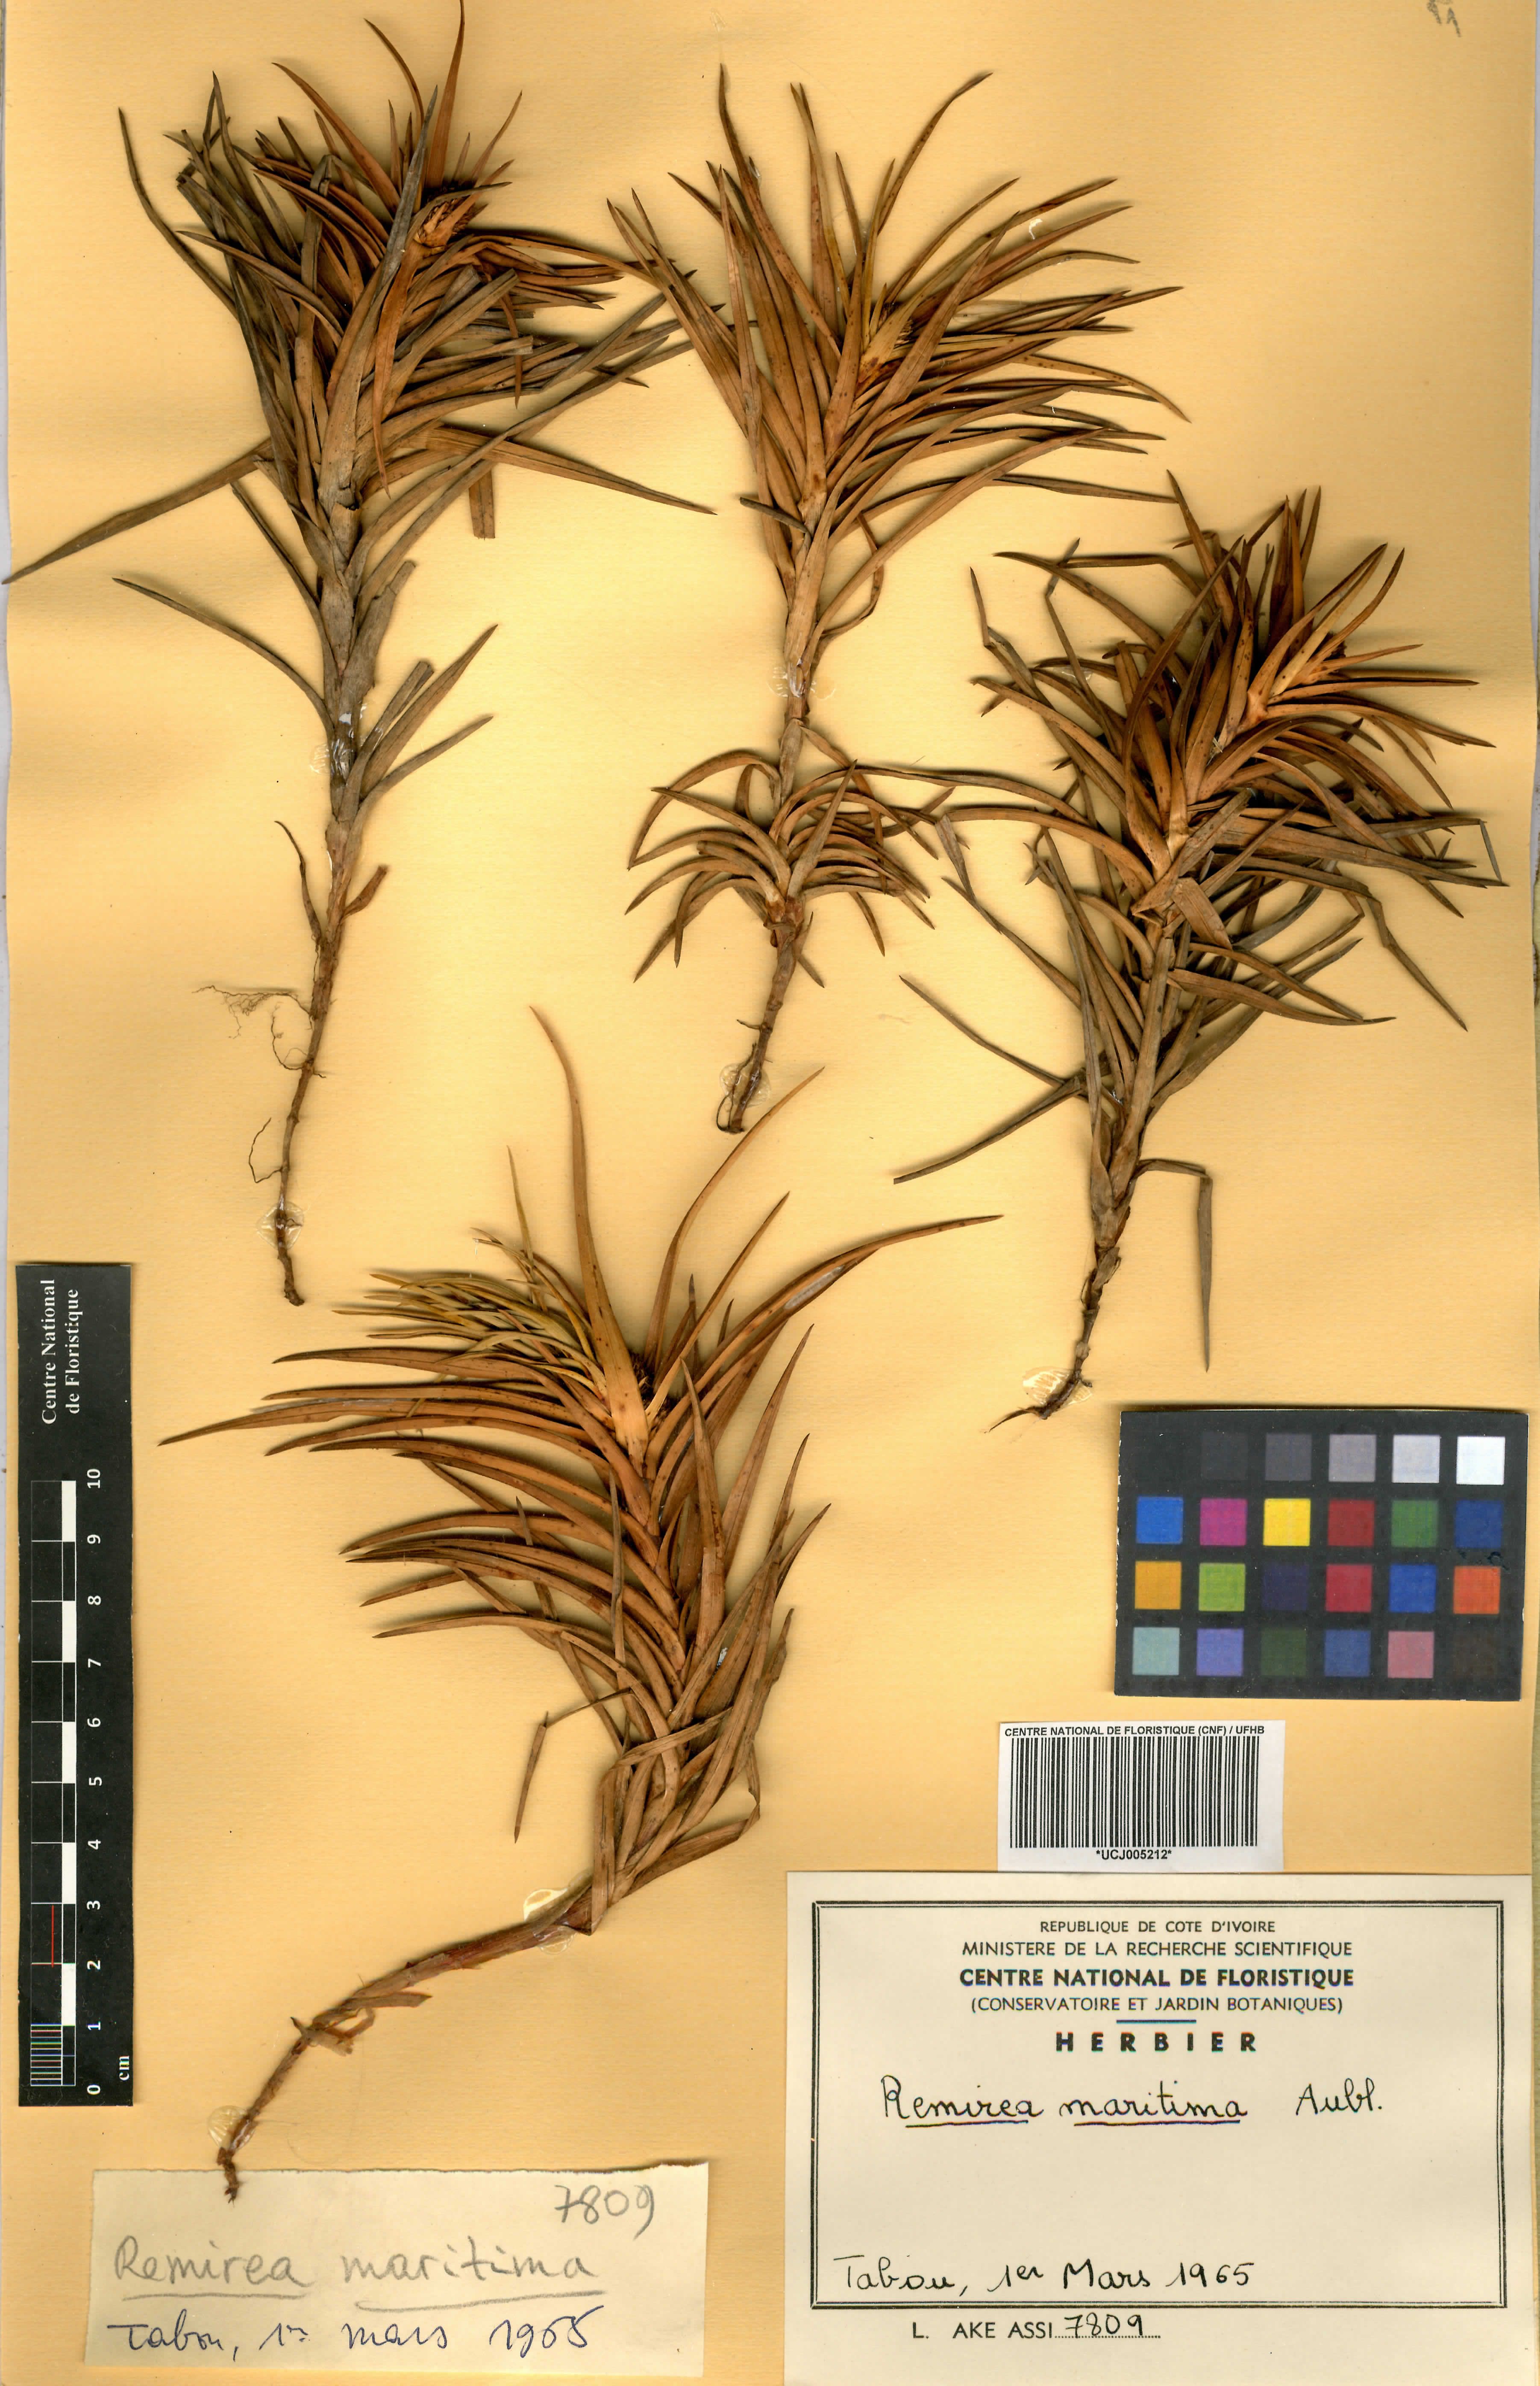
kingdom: Plantae
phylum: Tracheophyta
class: Liliopsida
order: Poales
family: Cyperaceae
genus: Cyperus
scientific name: Cyperus pedunculatus
